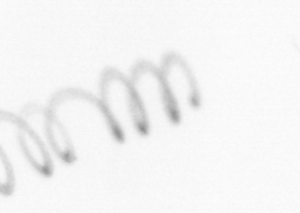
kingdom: Chromista
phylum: Ochrophyta
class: Bacillariophyceae
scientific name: Bacillariophyceae
